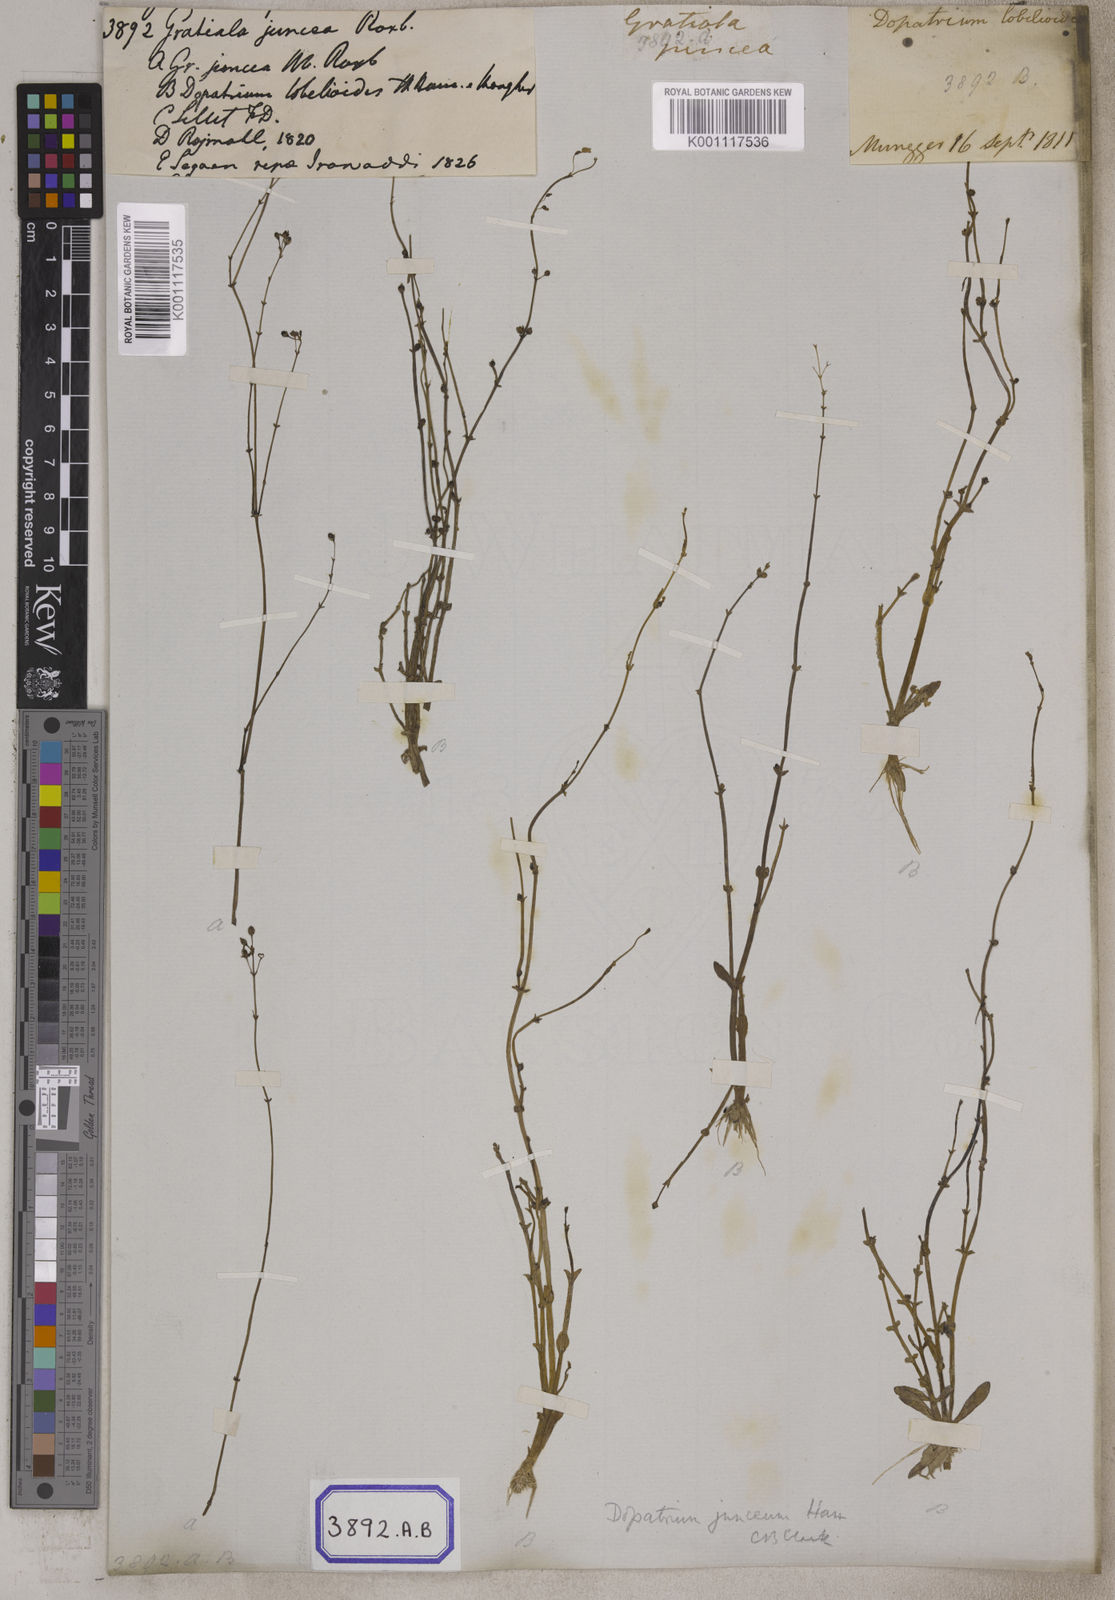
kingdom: Plantae
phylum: Tracheophyta
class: Magnoliopsida
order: Lamiales
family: Plantaginaceae
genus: Dopatrium
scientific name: Dopatrium junceum
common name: Horsefly's eye
